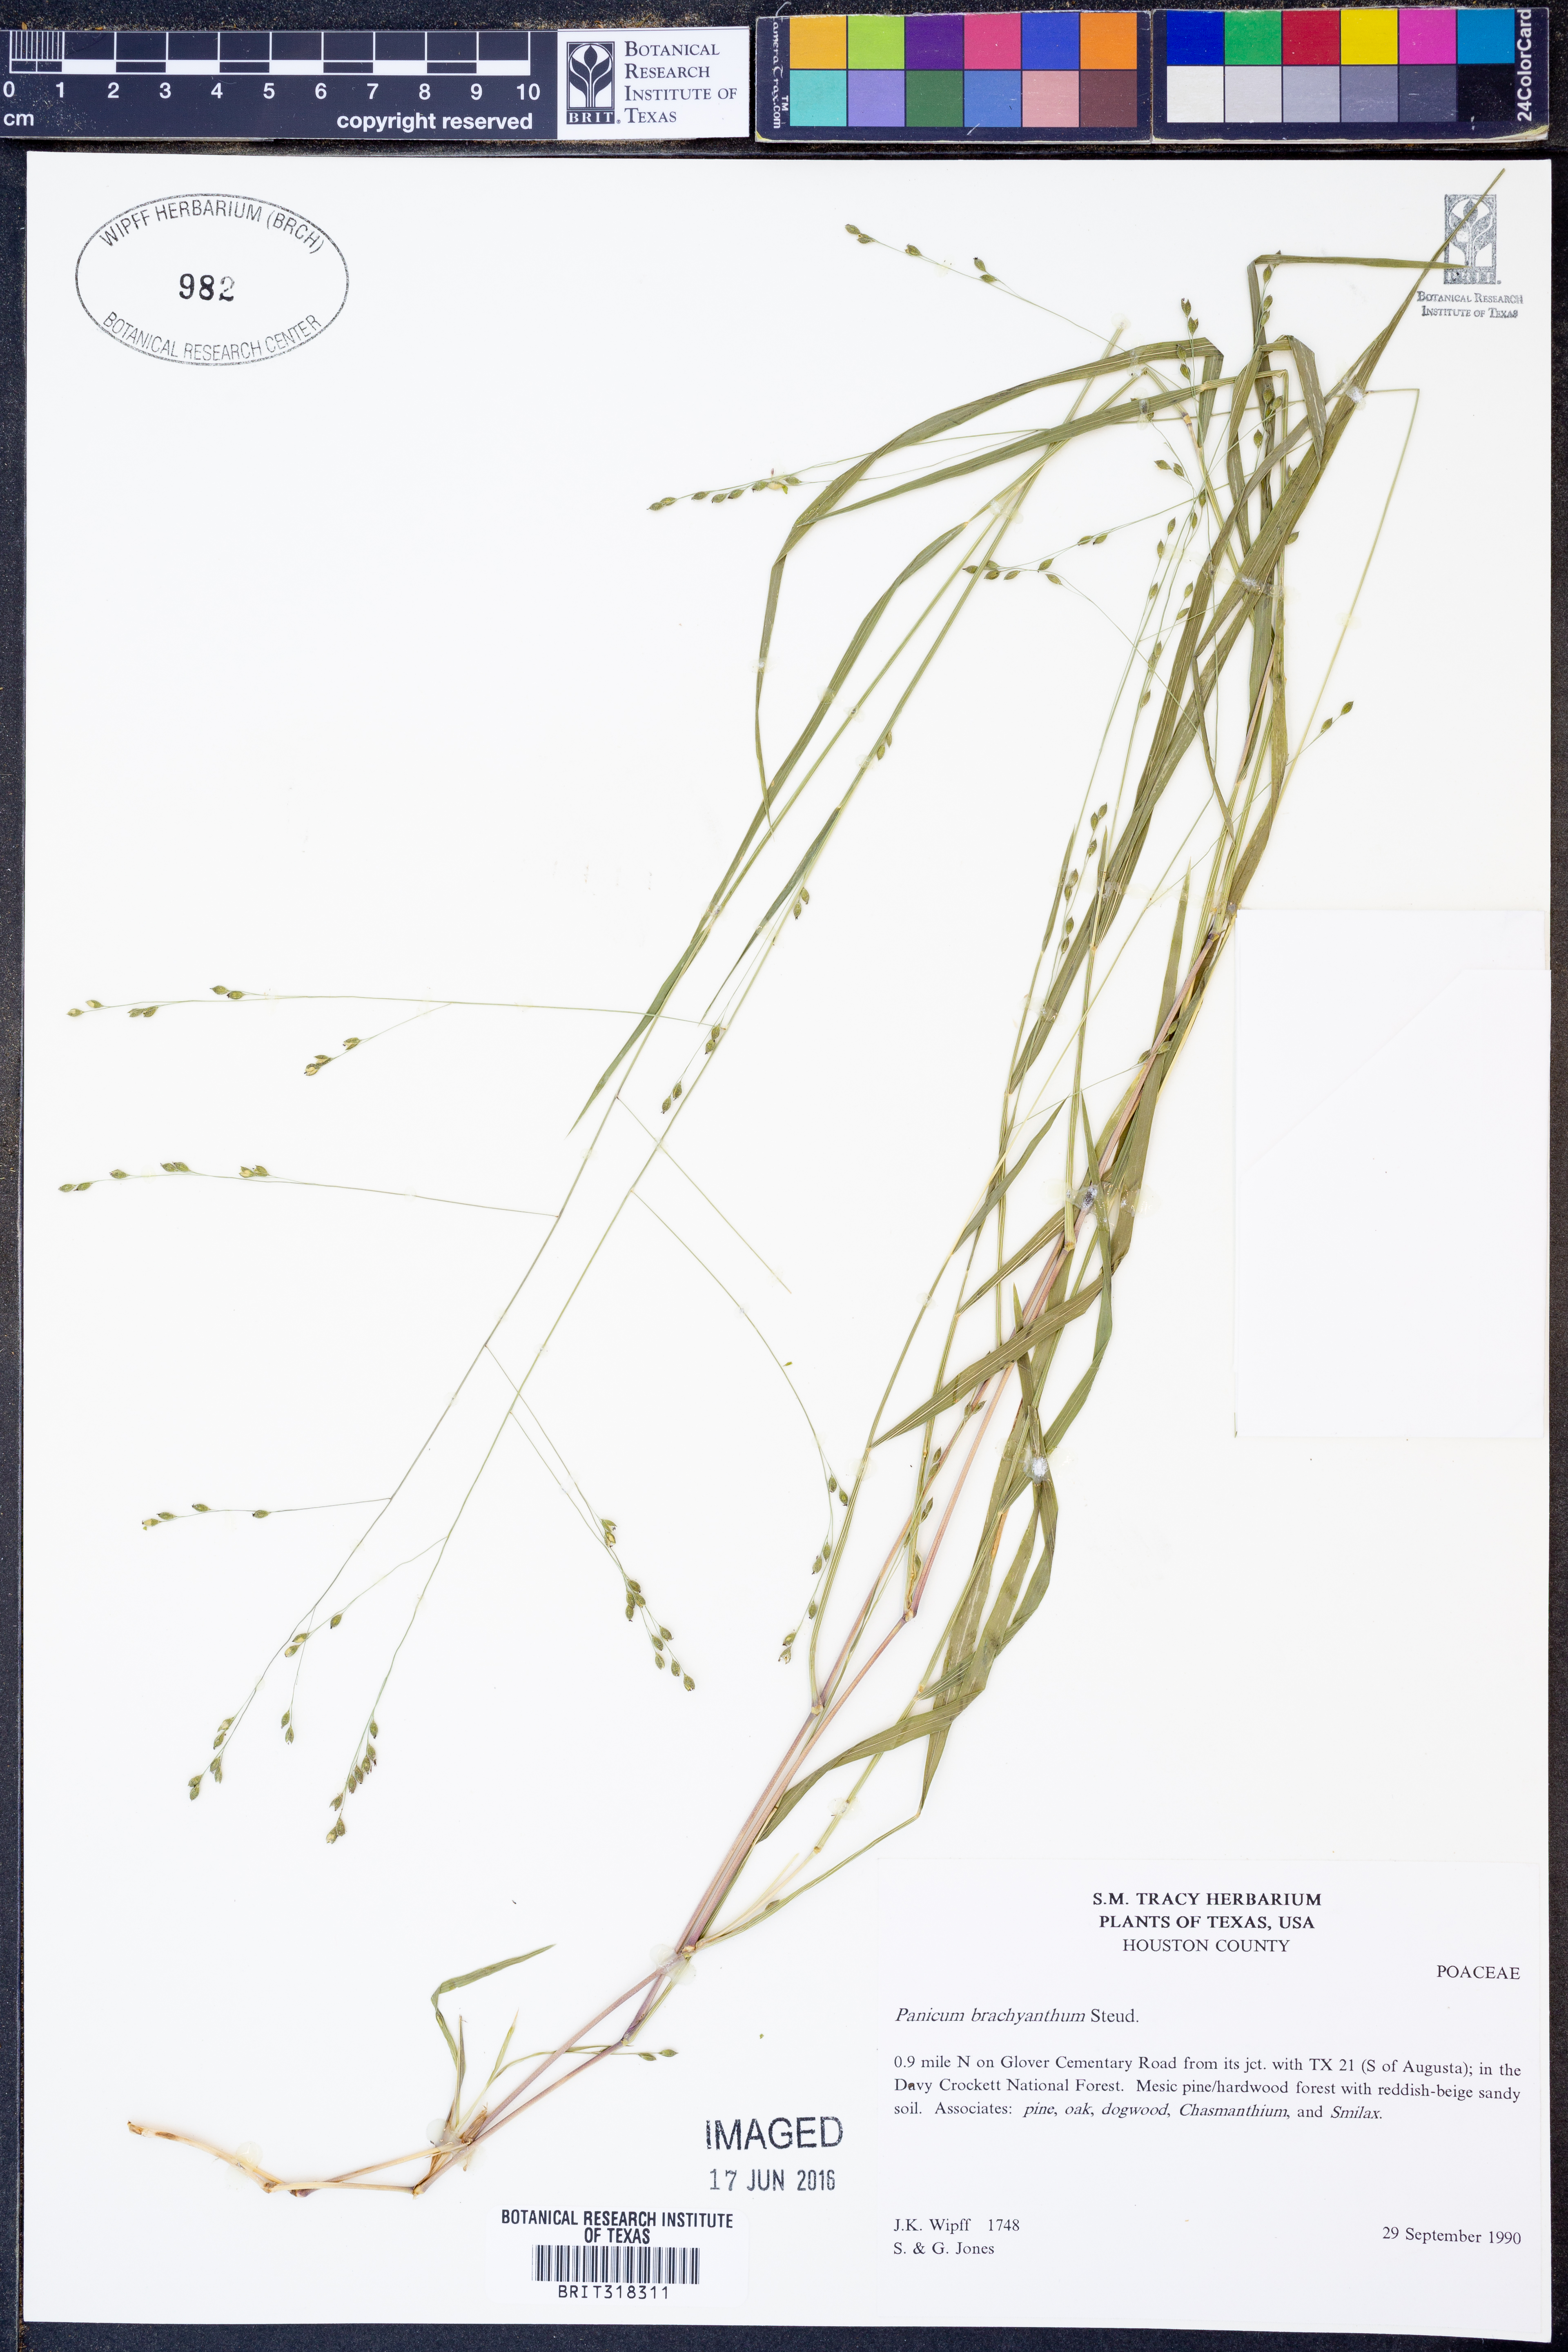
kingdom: Plantae
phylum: Tracheophyta
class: Liliopsida
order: Poales
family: Poaceae
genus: Kellochloa
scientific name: Kellochloa brachyantha
